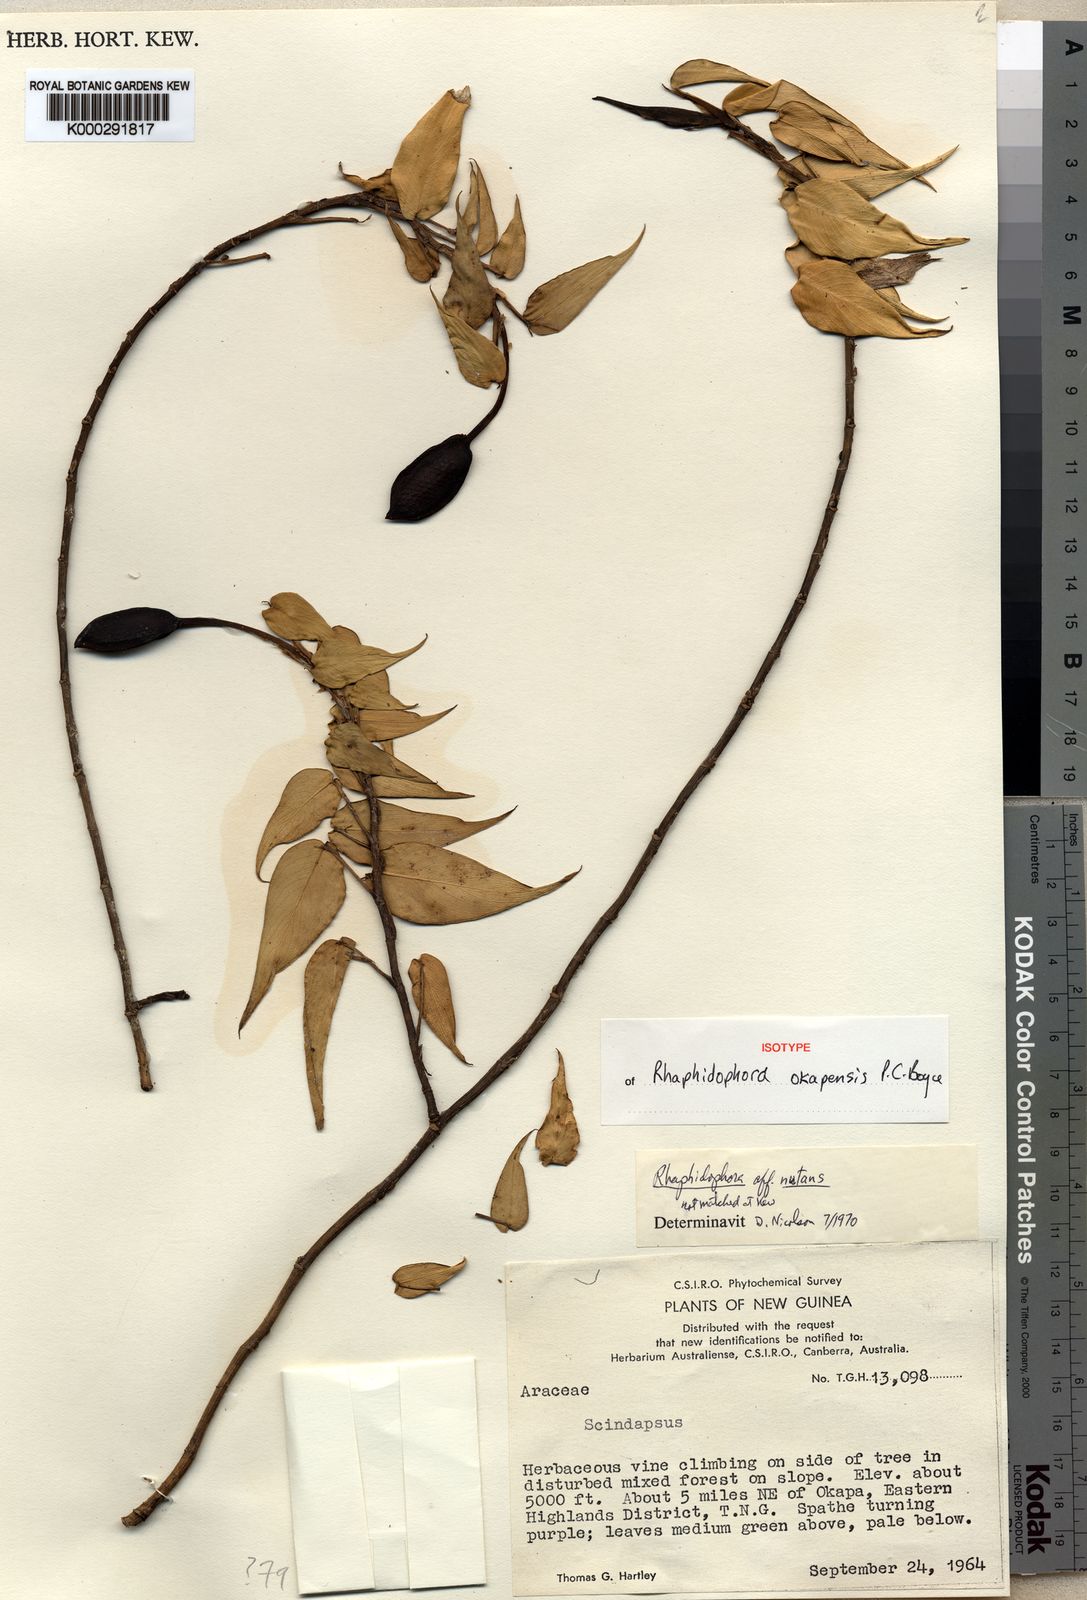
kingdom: Plantae
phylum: Tracheophyta
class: Liliopsida
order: Alismatales
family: Araceae
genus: Rhaphidophora
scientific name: Rhaphidophora okapensis
